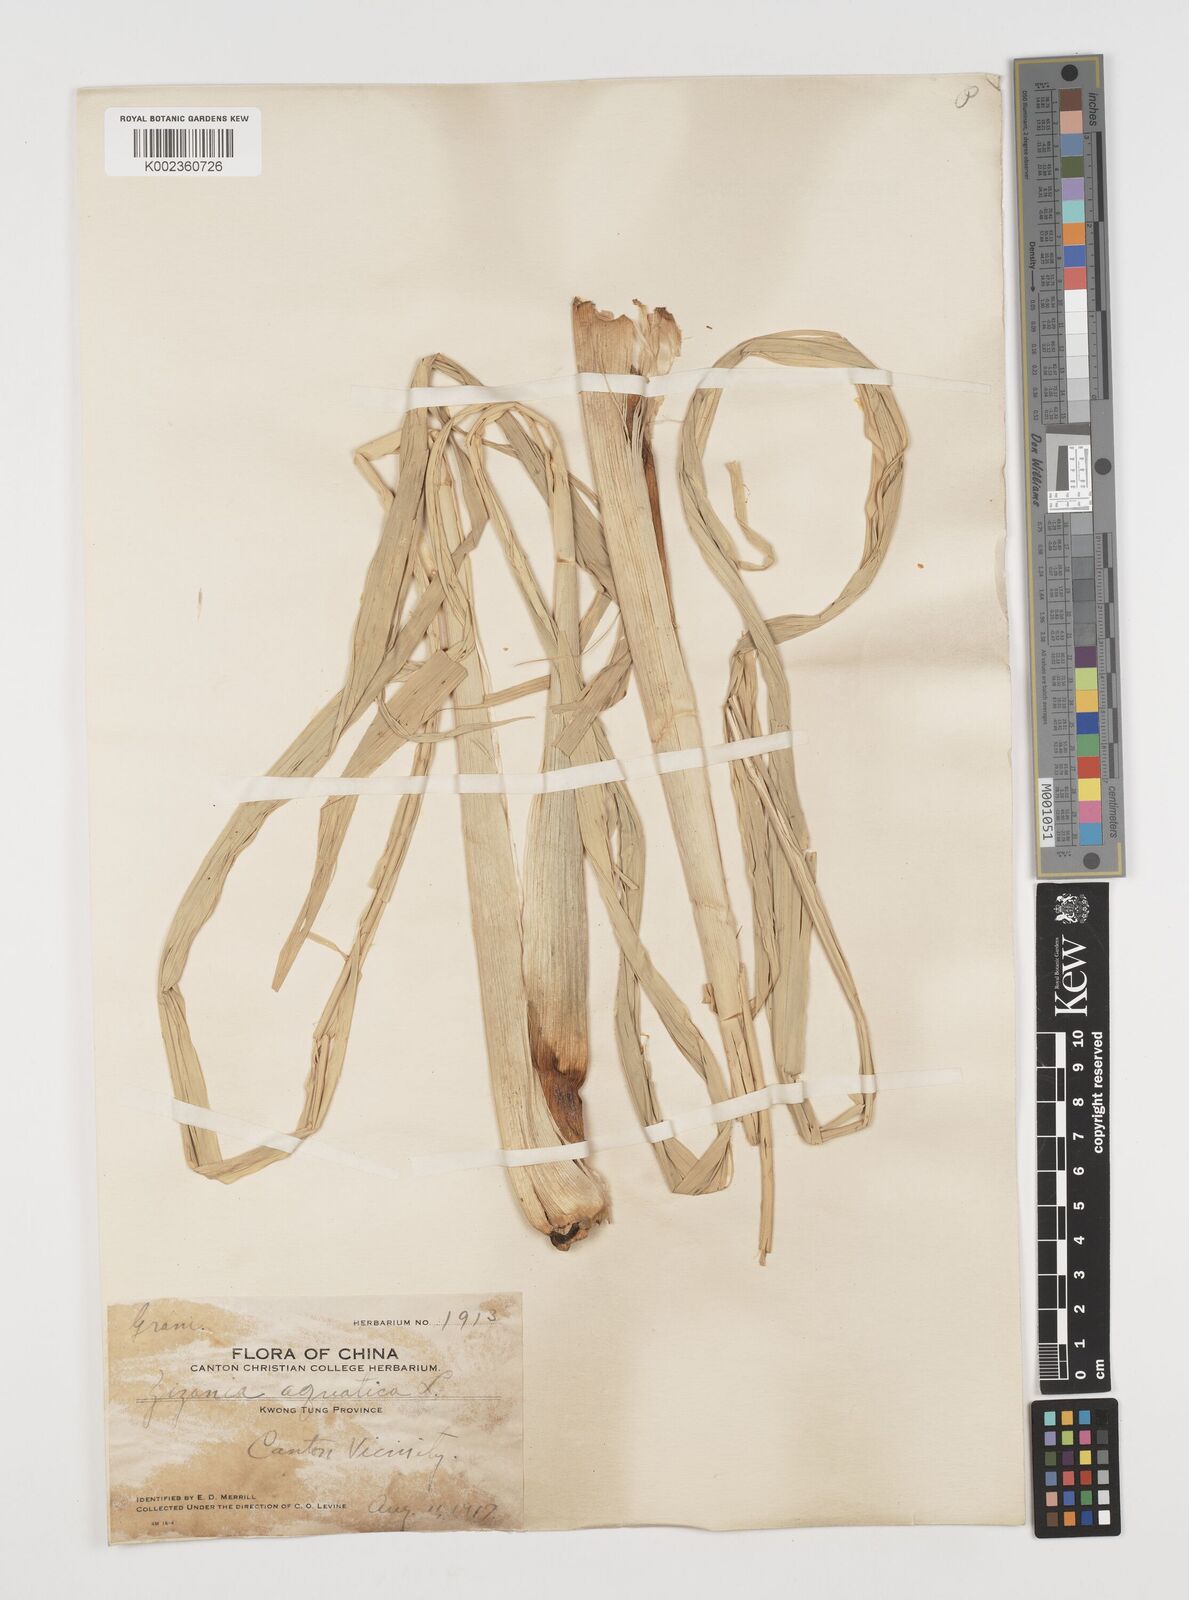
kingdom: Plantae
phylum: Tracheophyta
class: Liliopsida
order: Poales
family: Poaceae
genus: Zizania
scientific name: Zizania latifolia
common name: Manchurian wildrice
